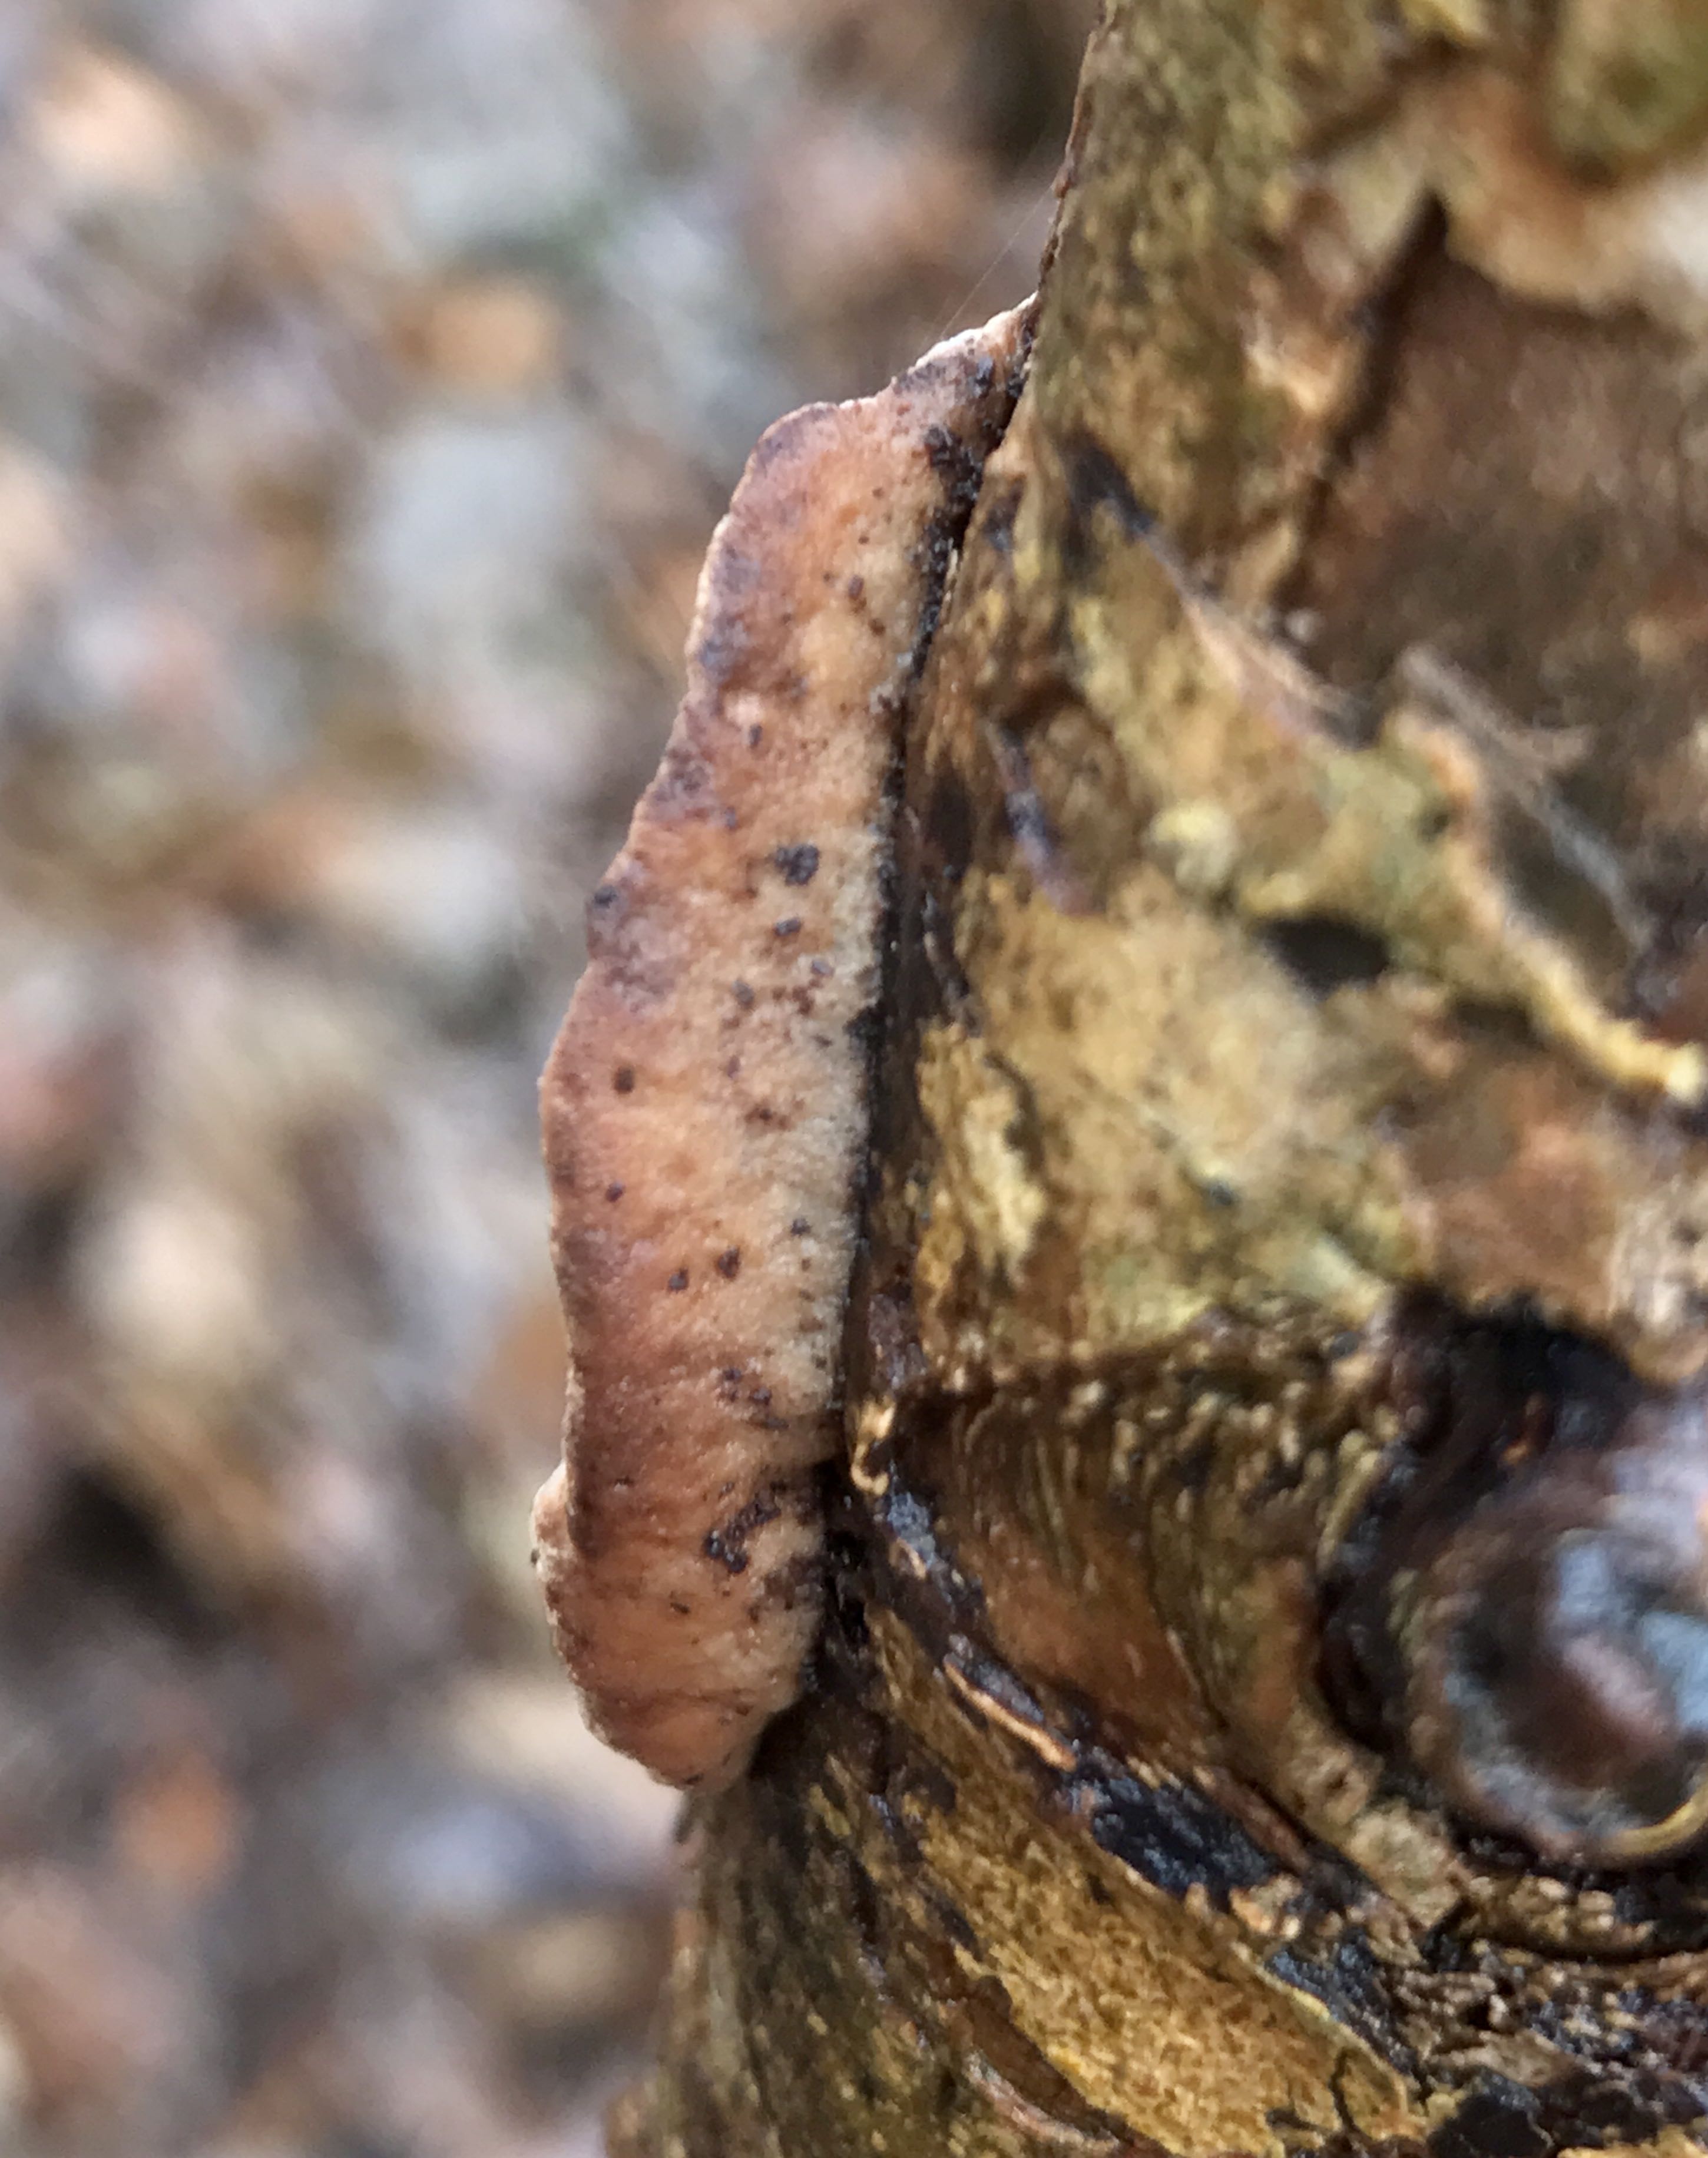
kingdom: Fungi
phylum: Basidiomycota
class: Agaricomycetes
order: Polyporales
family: Incrustoporiaceae
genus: Skeletocutis
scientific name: Skeletocutis nemoralis
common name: stor krystalporesvamp
